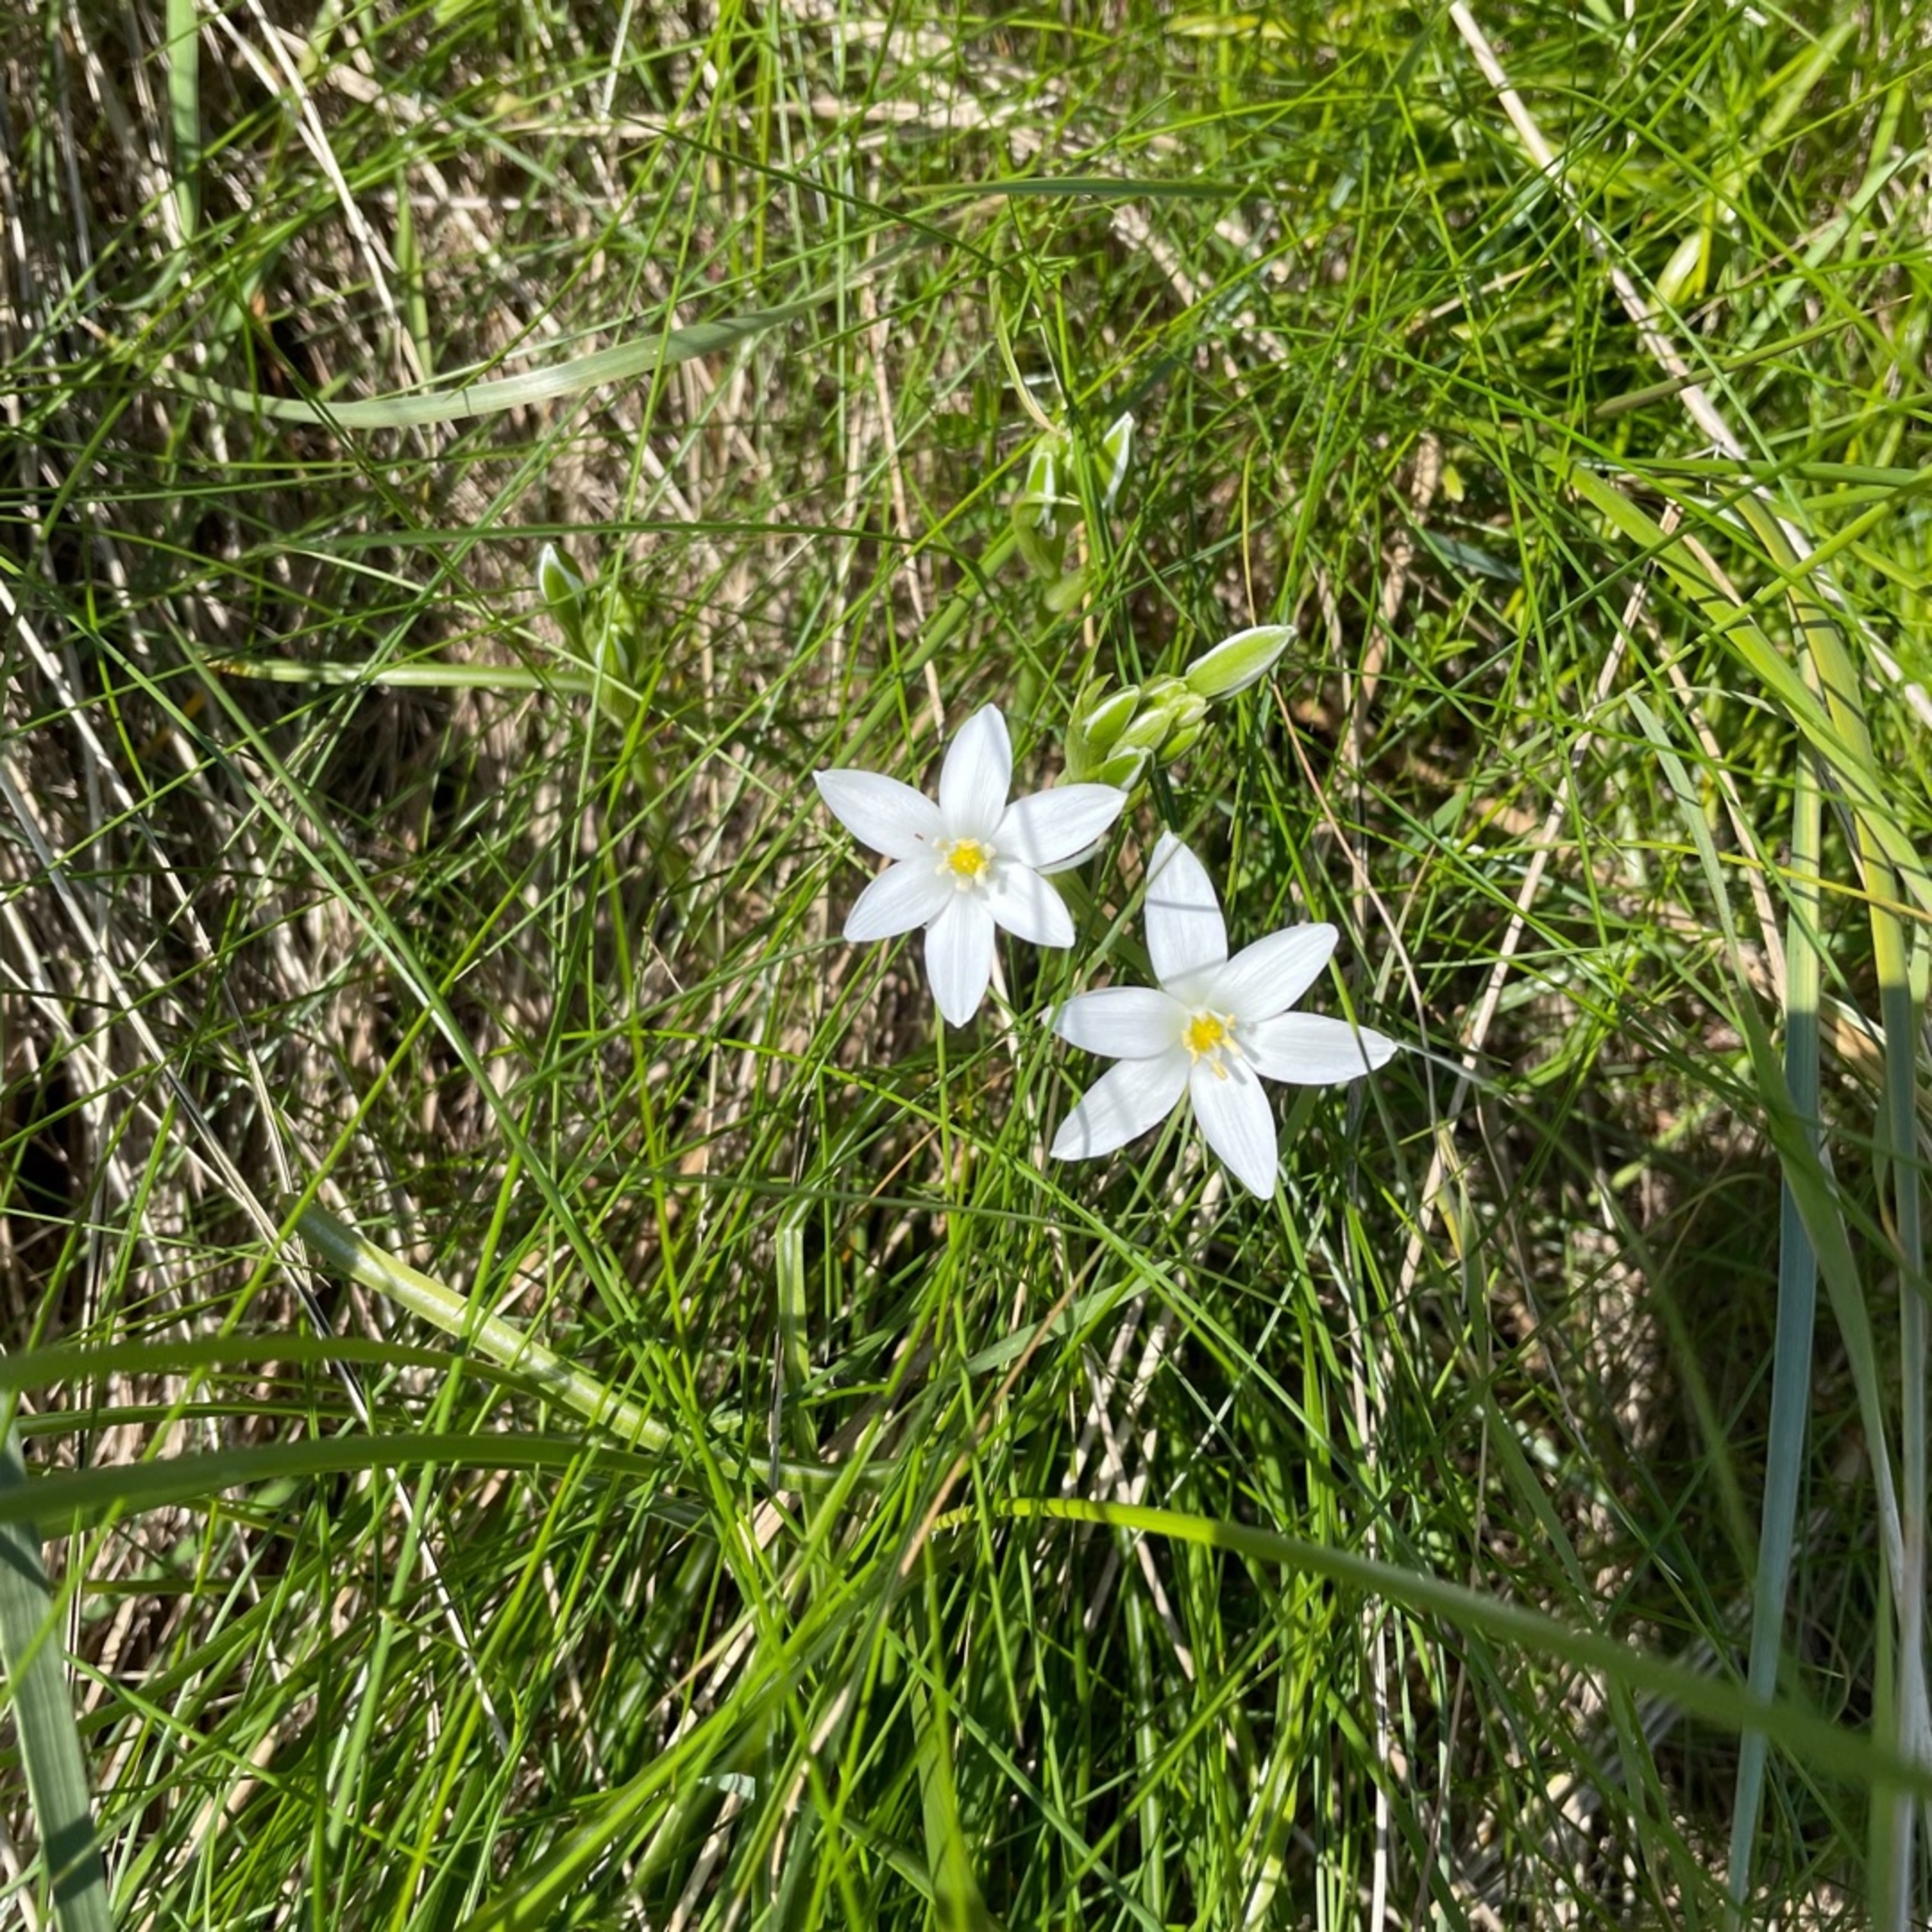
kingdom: Plantae
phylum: Tracheophyta
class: Liliopsida
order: Asparagales
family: Asparagaceae
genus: Ornithogalum
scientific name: Ornithogalum umbellatum
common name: Kost-fuglemælk
